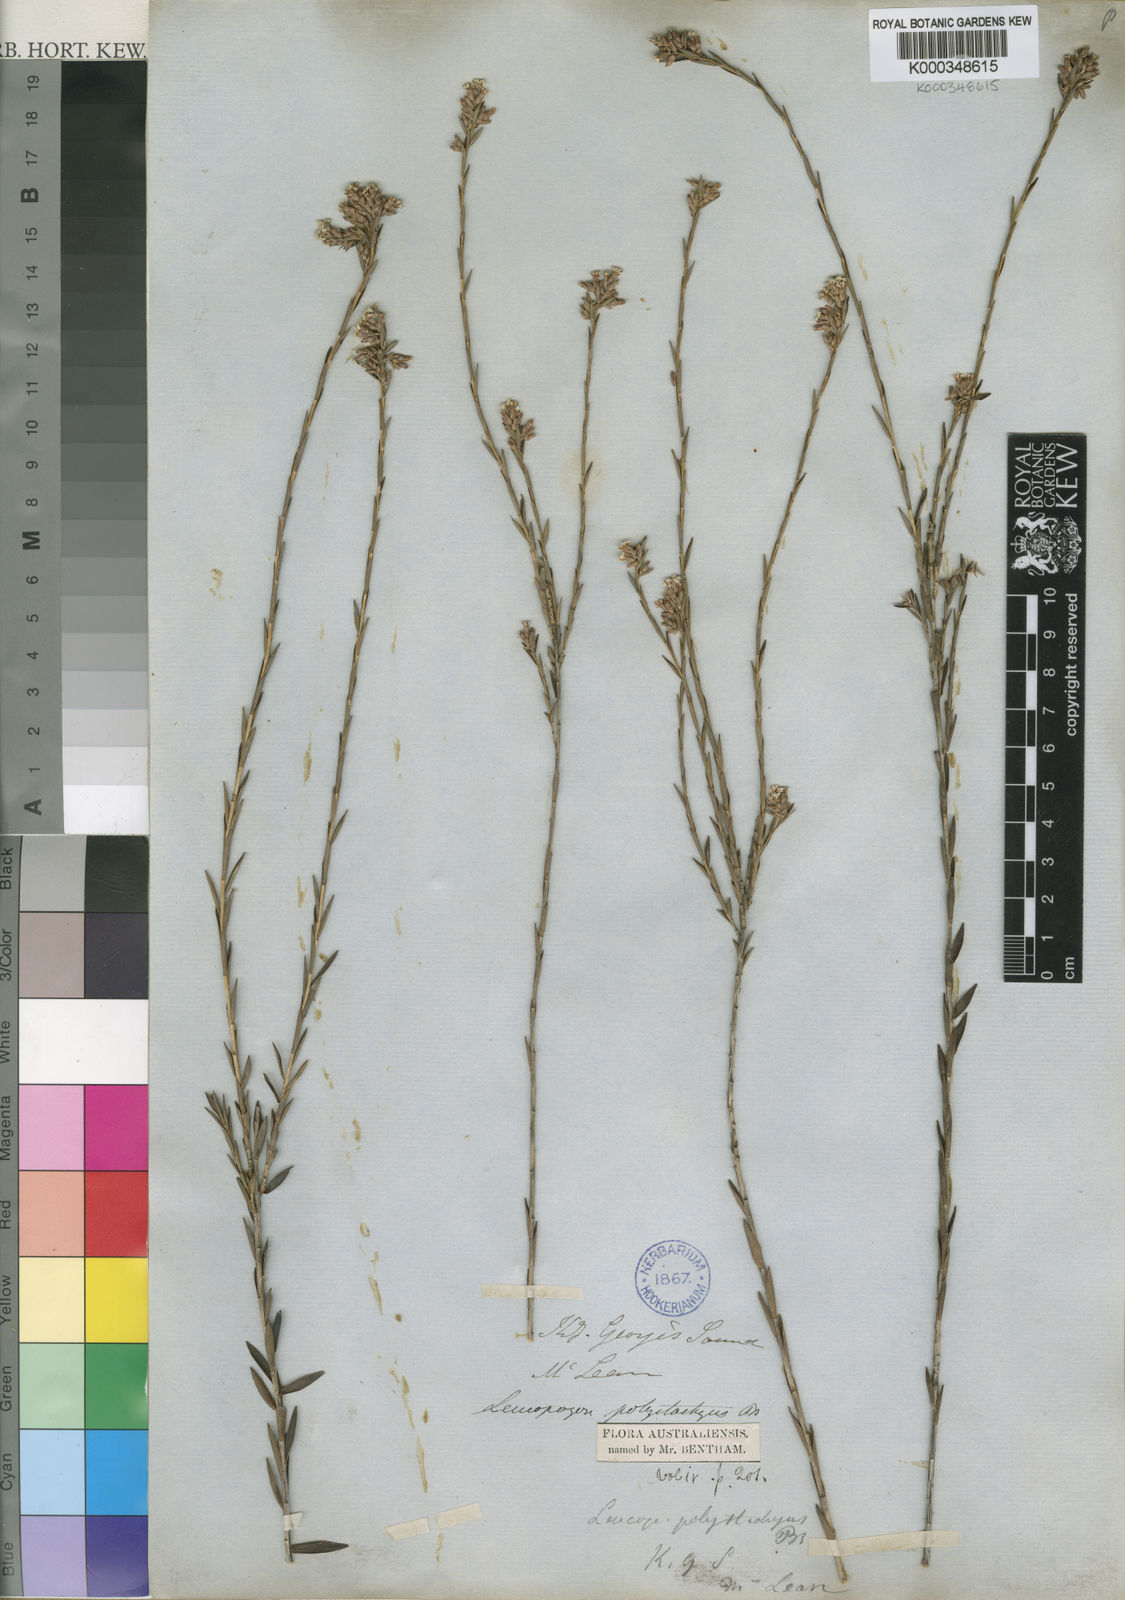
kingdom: Plantae
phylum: Tracheophyta
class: Magnoliopsida
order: Ericales
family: Ericaceae
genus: Leucopogon
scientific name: Leucopogon polystachyus
